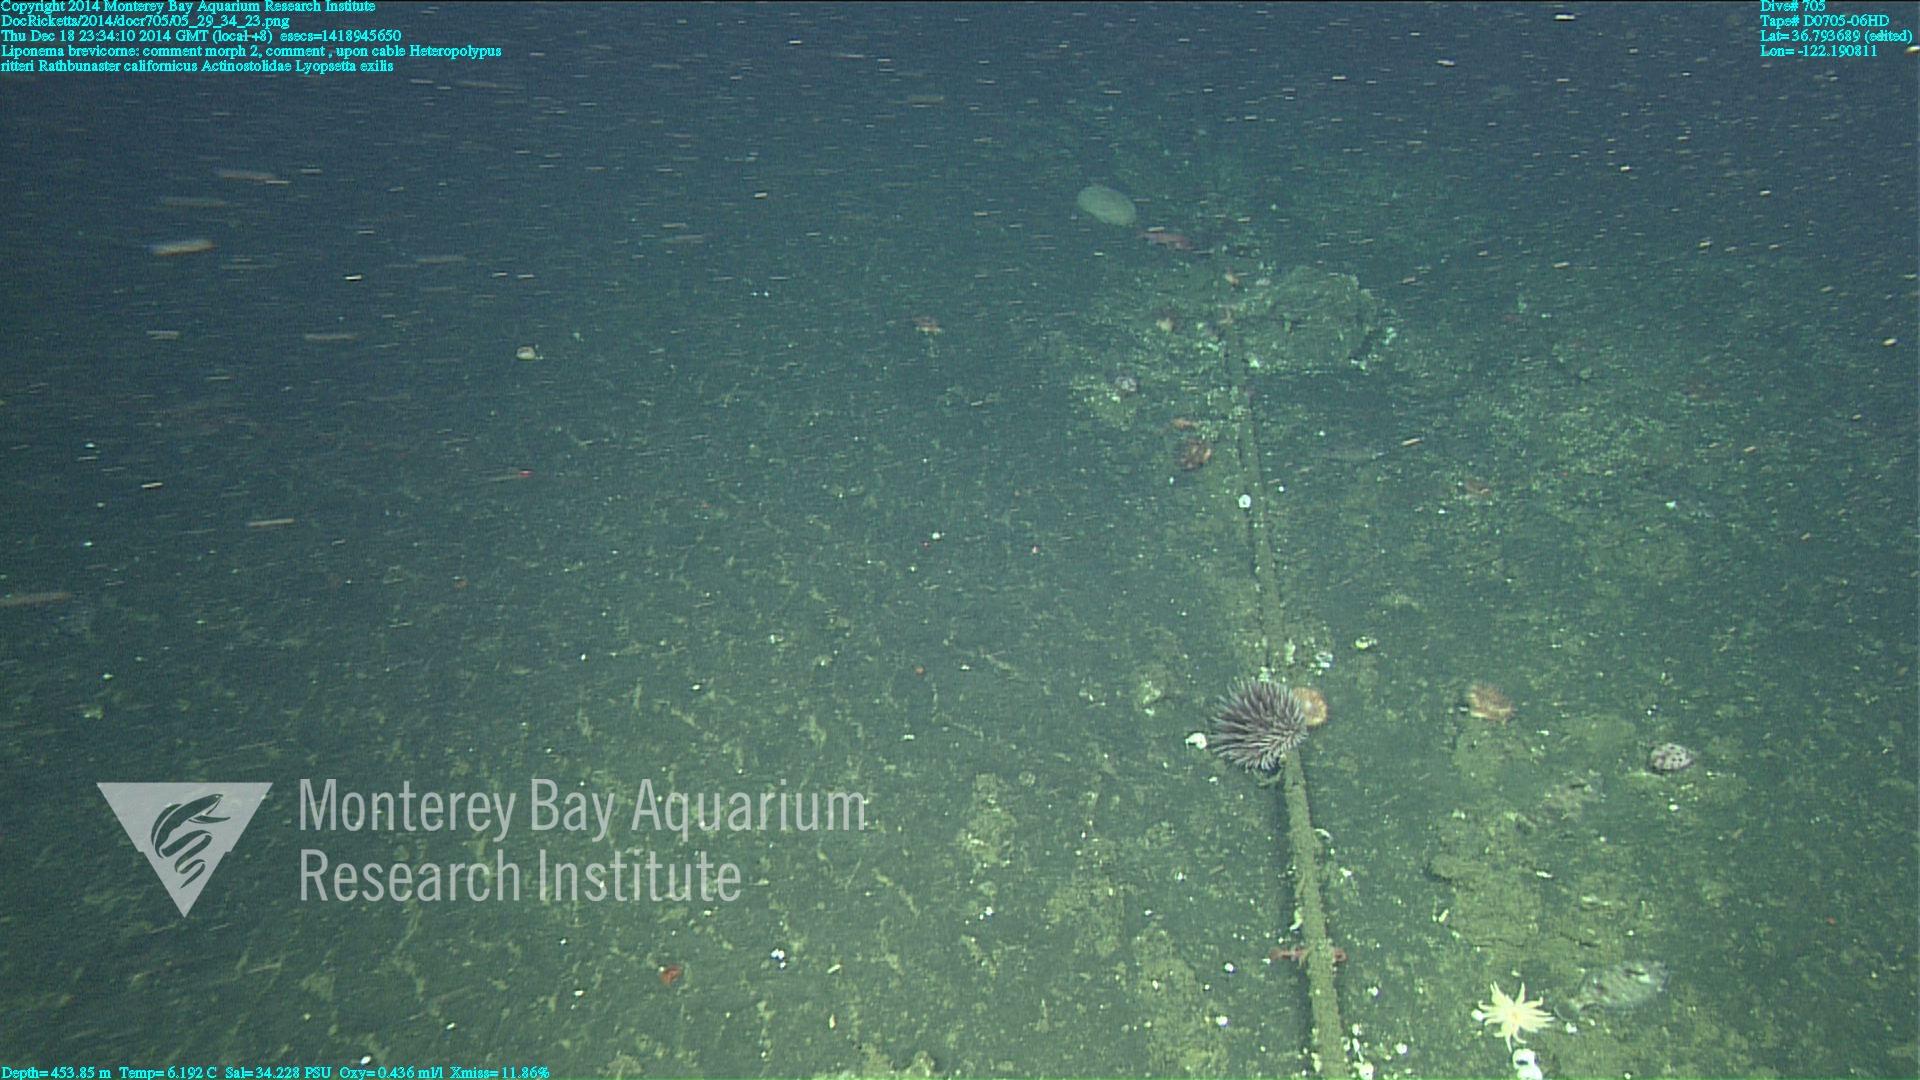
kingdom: Animalia
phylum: Cnidaria
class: Anthozoa
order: Scleralcyonacea
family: Coralliidae
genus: Heteropolypus
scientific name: Heteropolypus ritteri
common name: Ritter's soft coral
